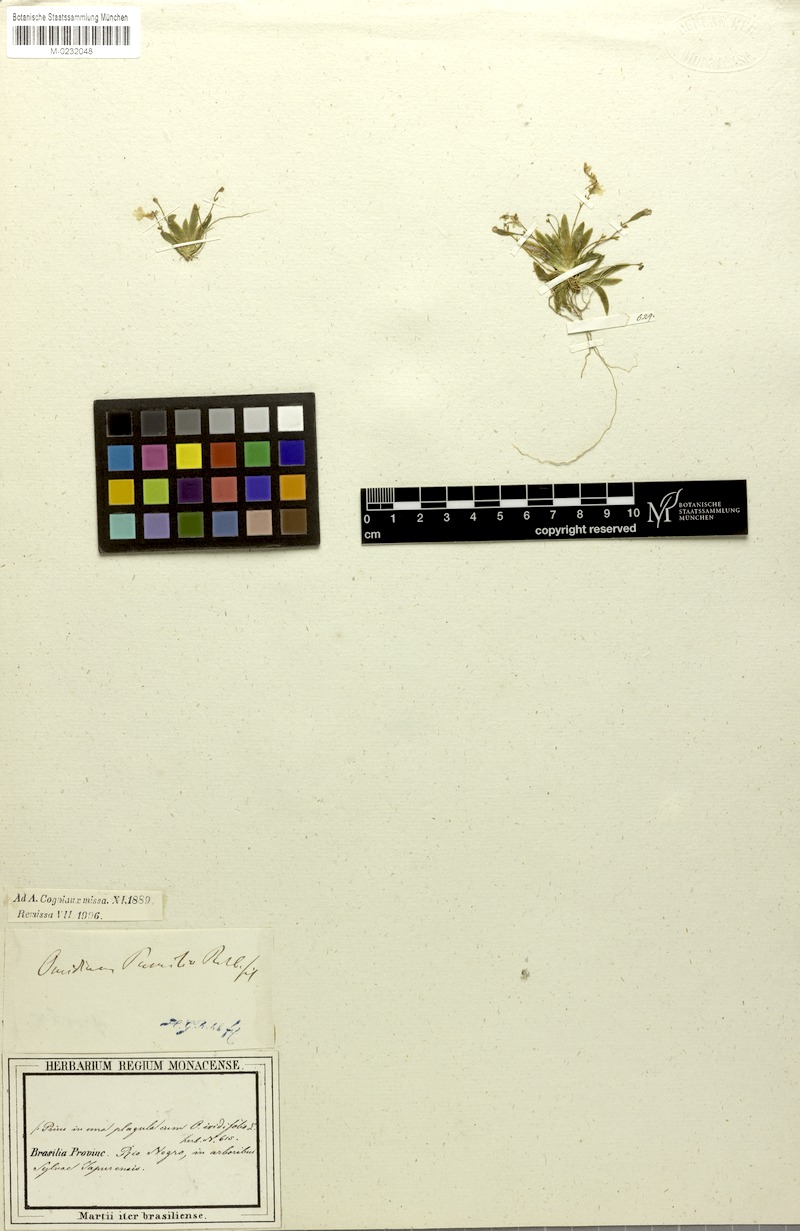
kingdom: Plantae
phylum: Tracheophyta
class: Liliopsida
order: Asparagales
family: Orchidaceae
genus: Erycina
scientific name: Erycina pumilio
